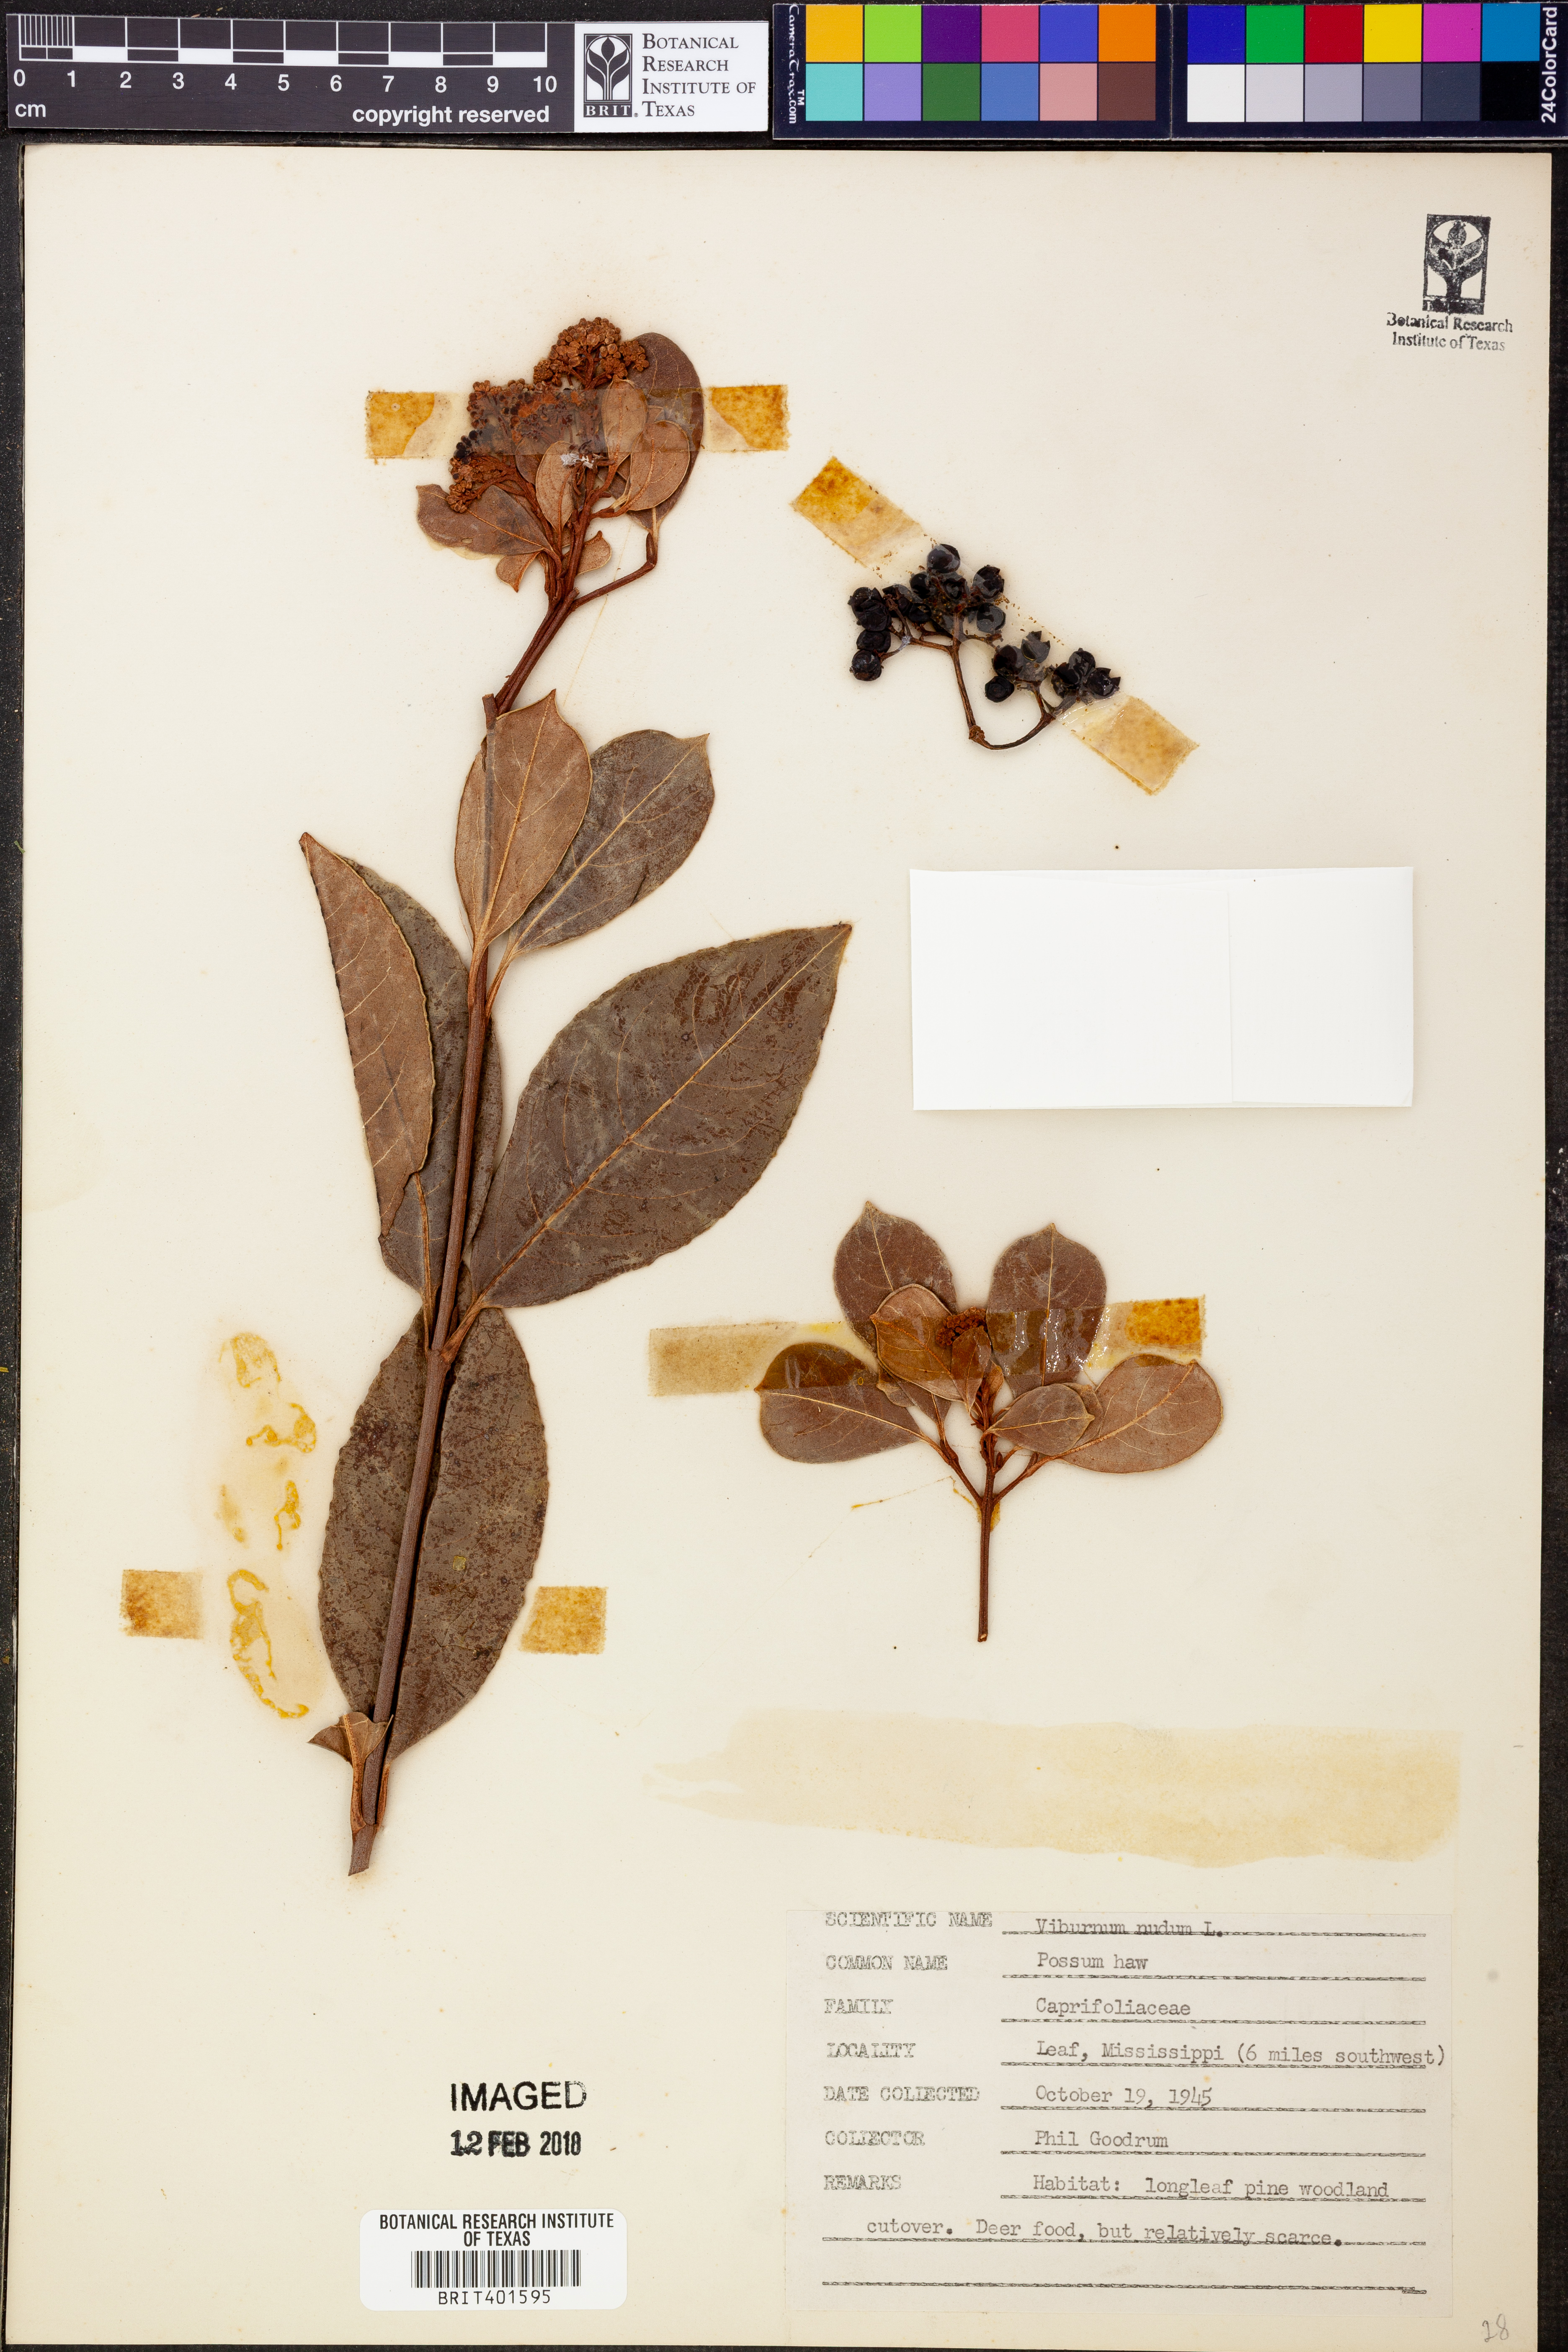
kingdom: Plantae
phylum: Tracheophyta
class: Magnoliopsida
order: Dipsacales
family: Viburnaceae
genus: Viburnum
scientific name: Viburnum nudum
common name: Possum haw
